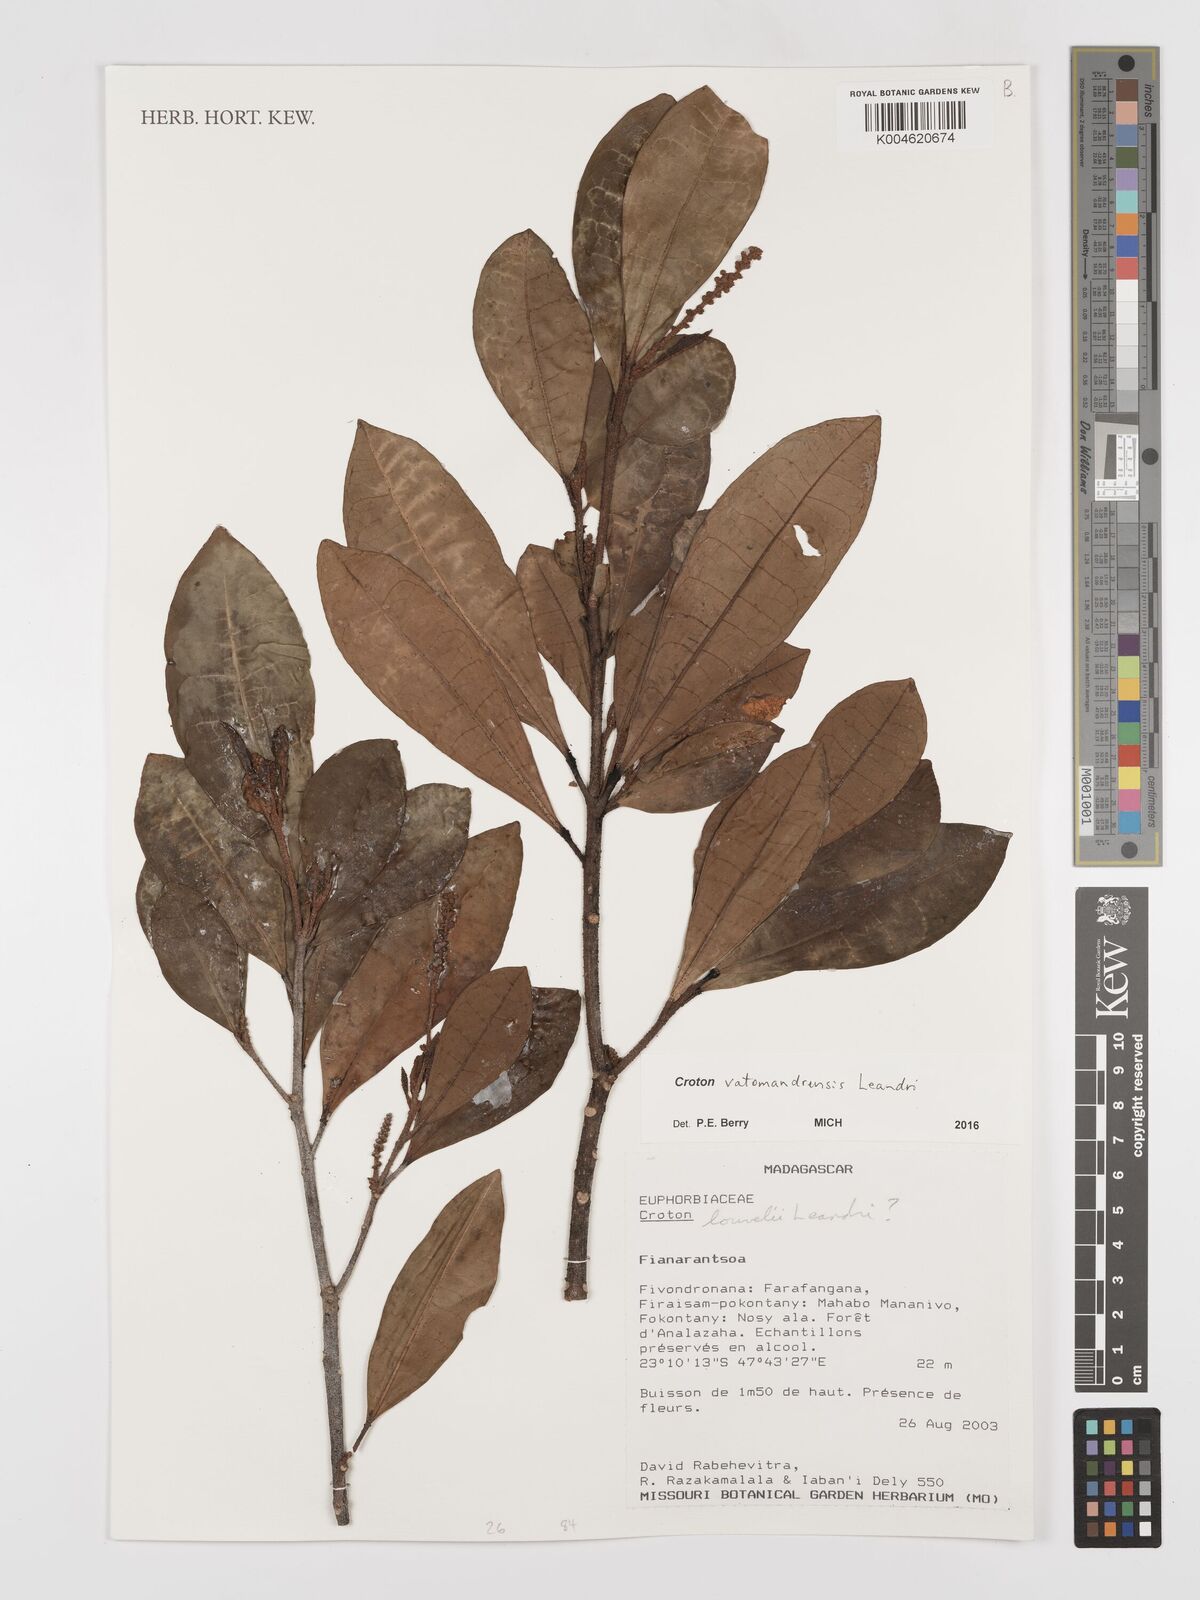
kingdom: Plantae
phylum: Tracheophyta
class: Magnoliopsida
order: Malpighiales
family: Euphorbiaceae
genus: Croton
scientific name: Croton vatomandrensis
